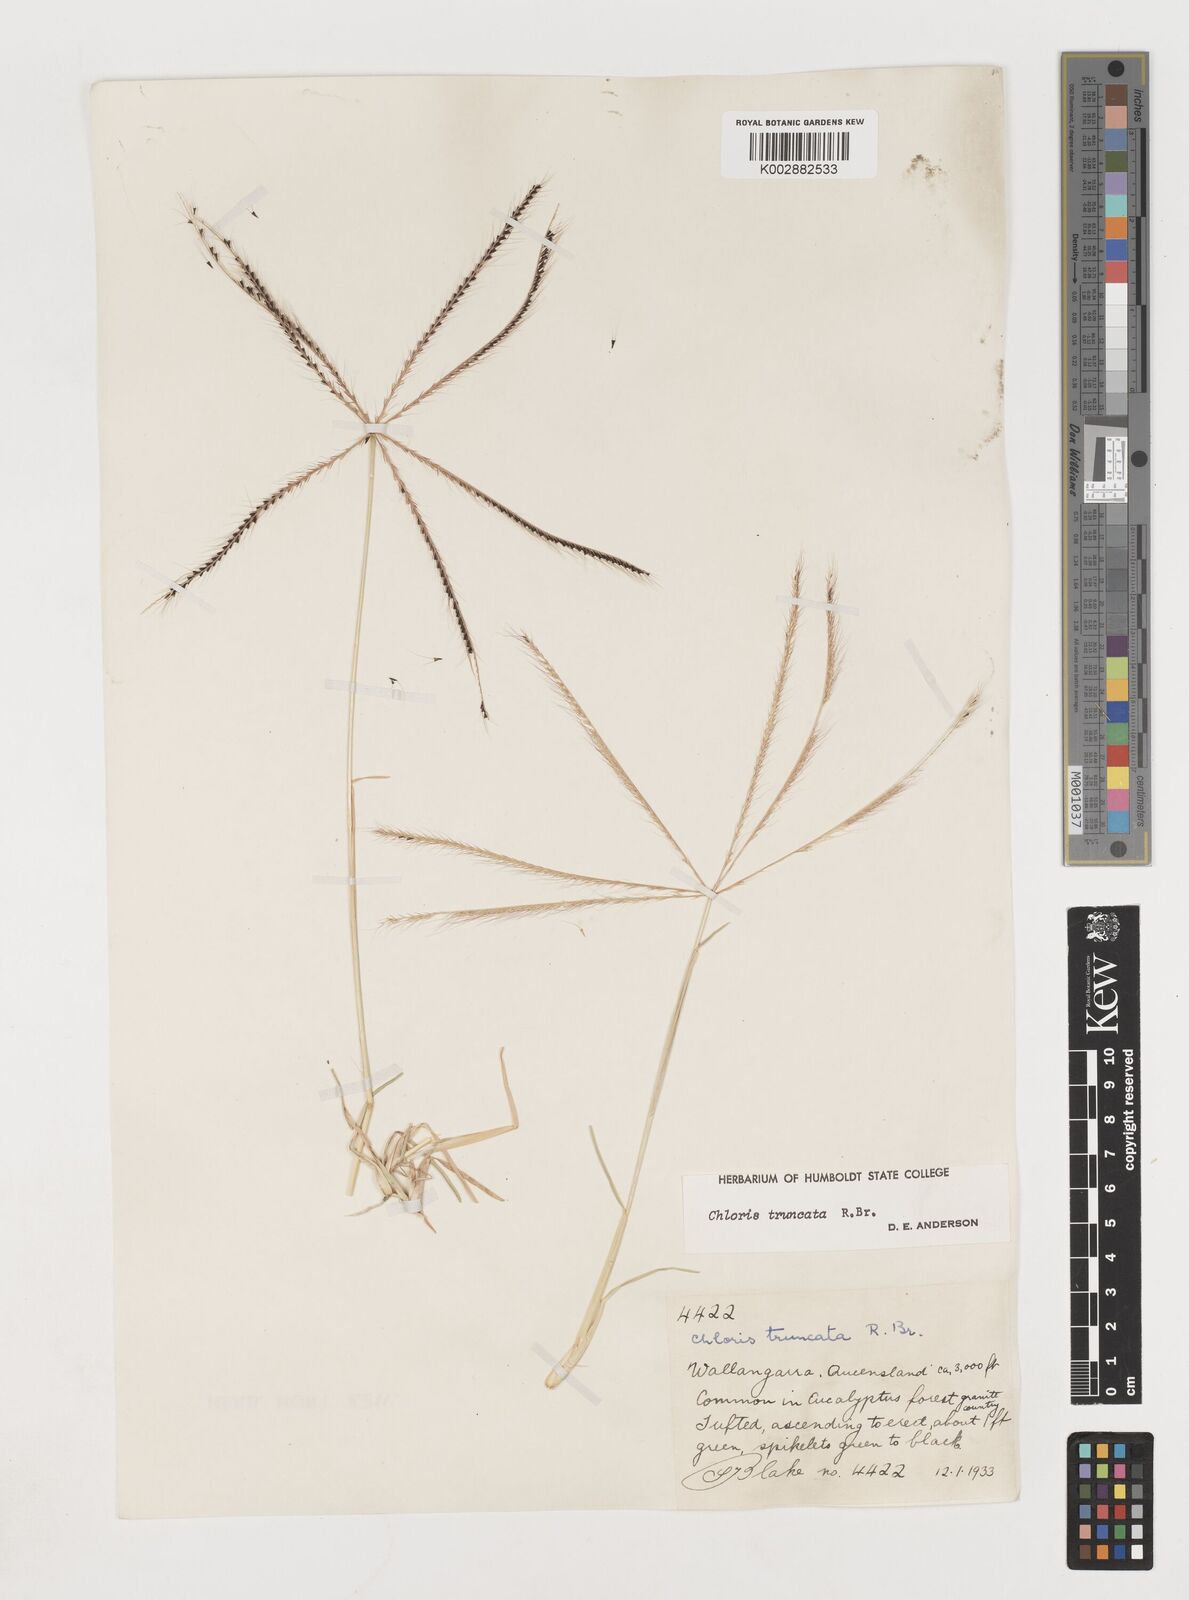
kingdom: Plantae
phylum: Tracheophyta
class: Liliopsida
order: Poales
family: Poaceae
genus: Chloris
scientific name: Chloris truncata
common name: Windmill-grass
